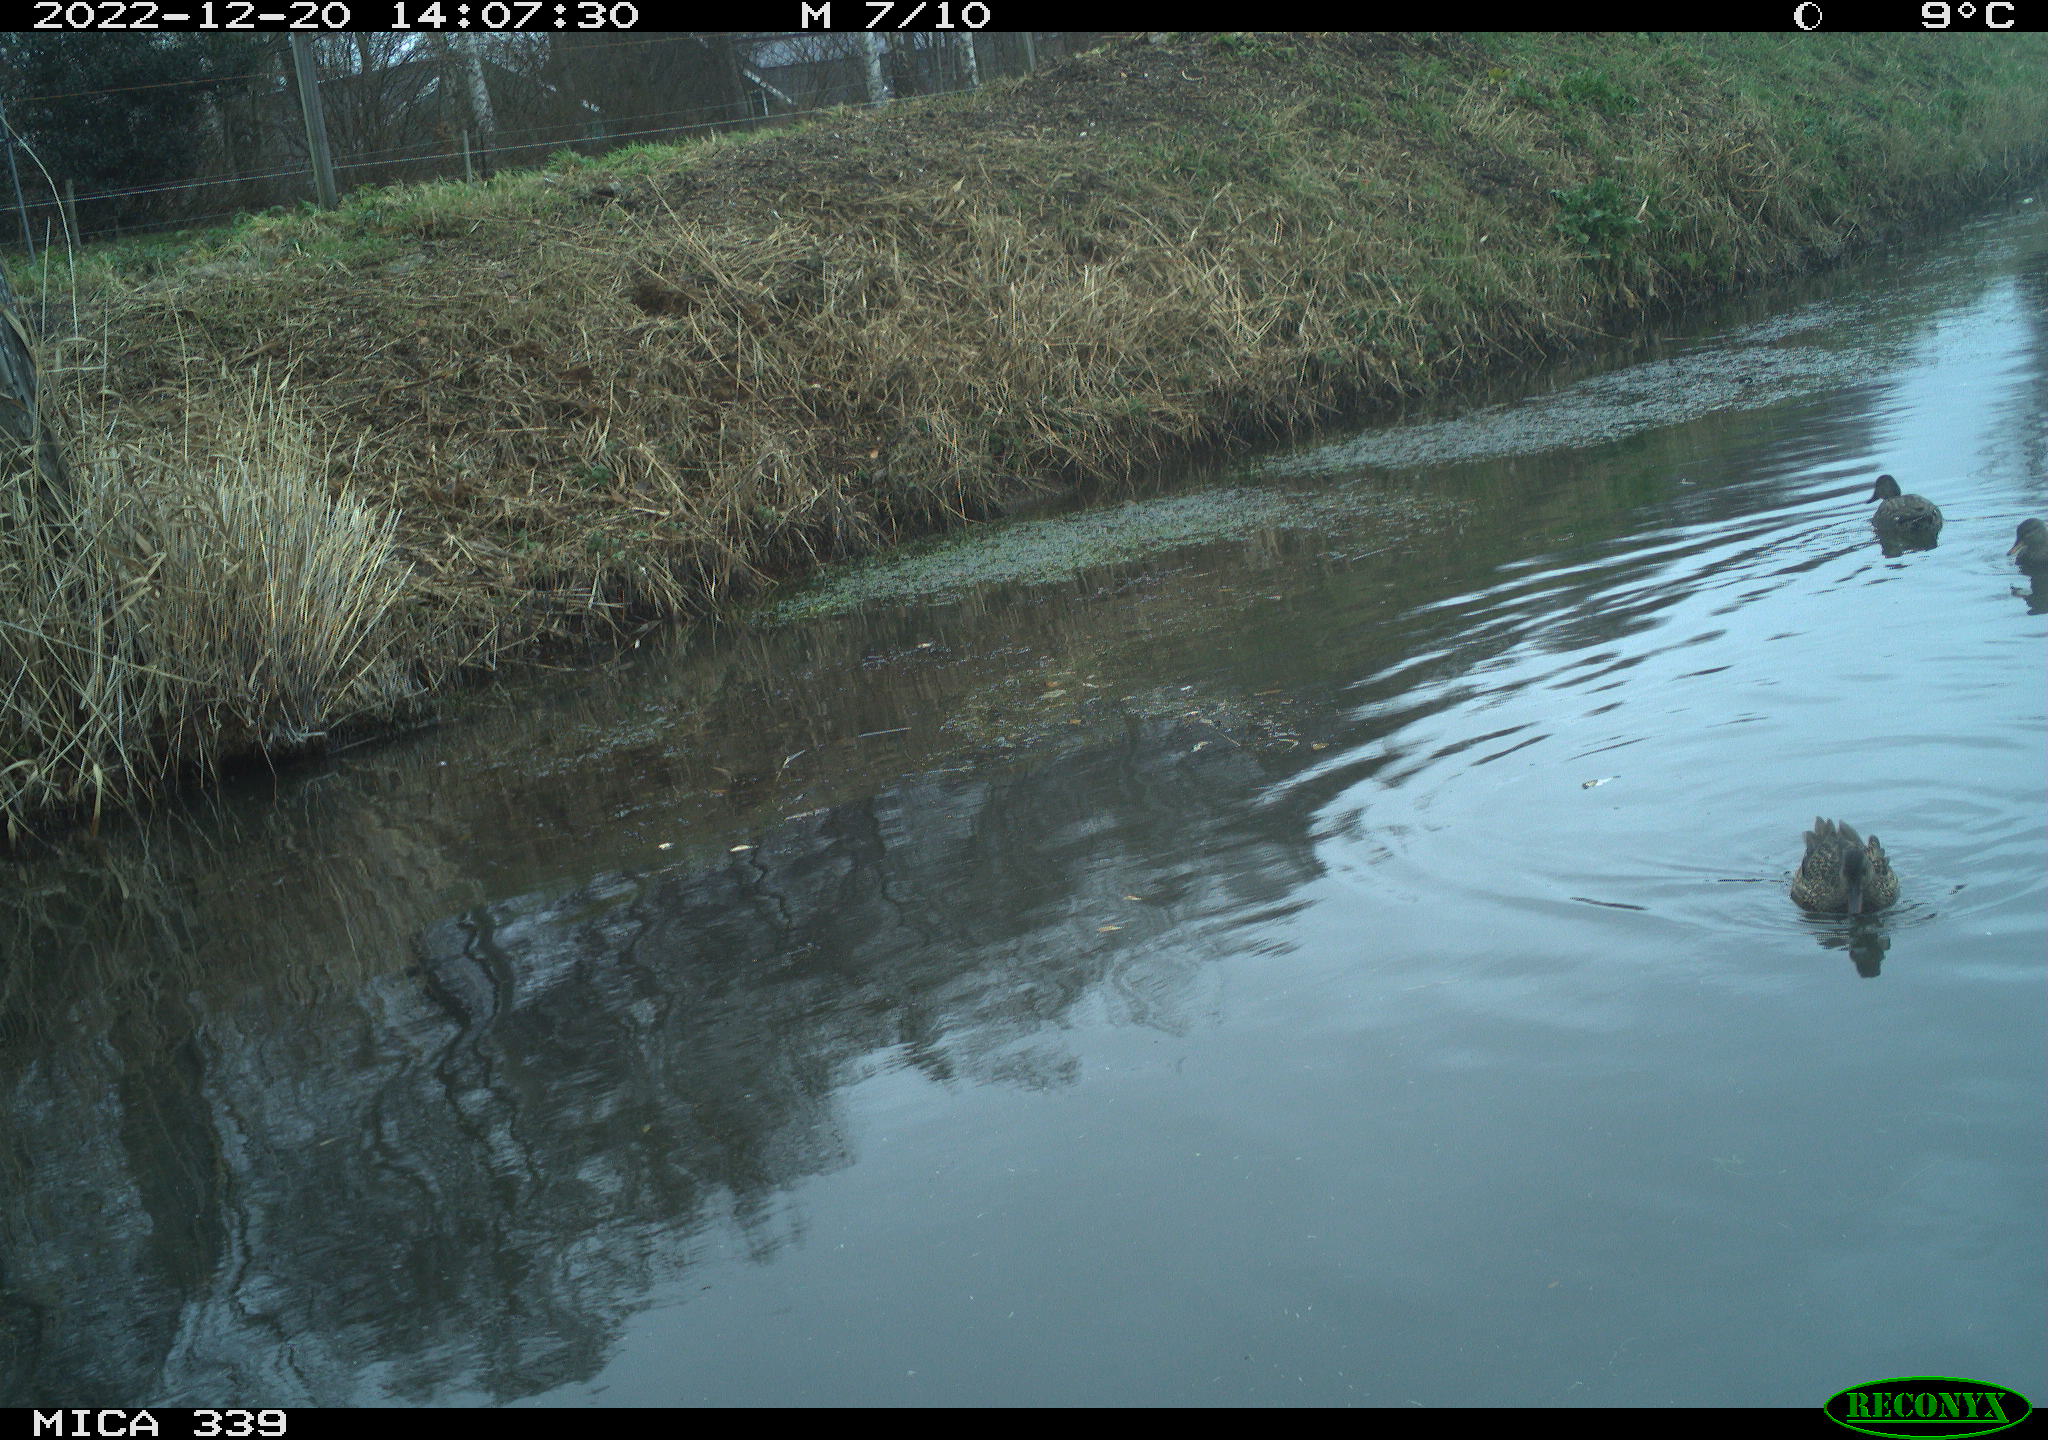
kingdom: Animalia
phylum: Chordata
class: Aves
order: Anseriformes
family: Anatidae
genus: Anas
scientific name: Anas
